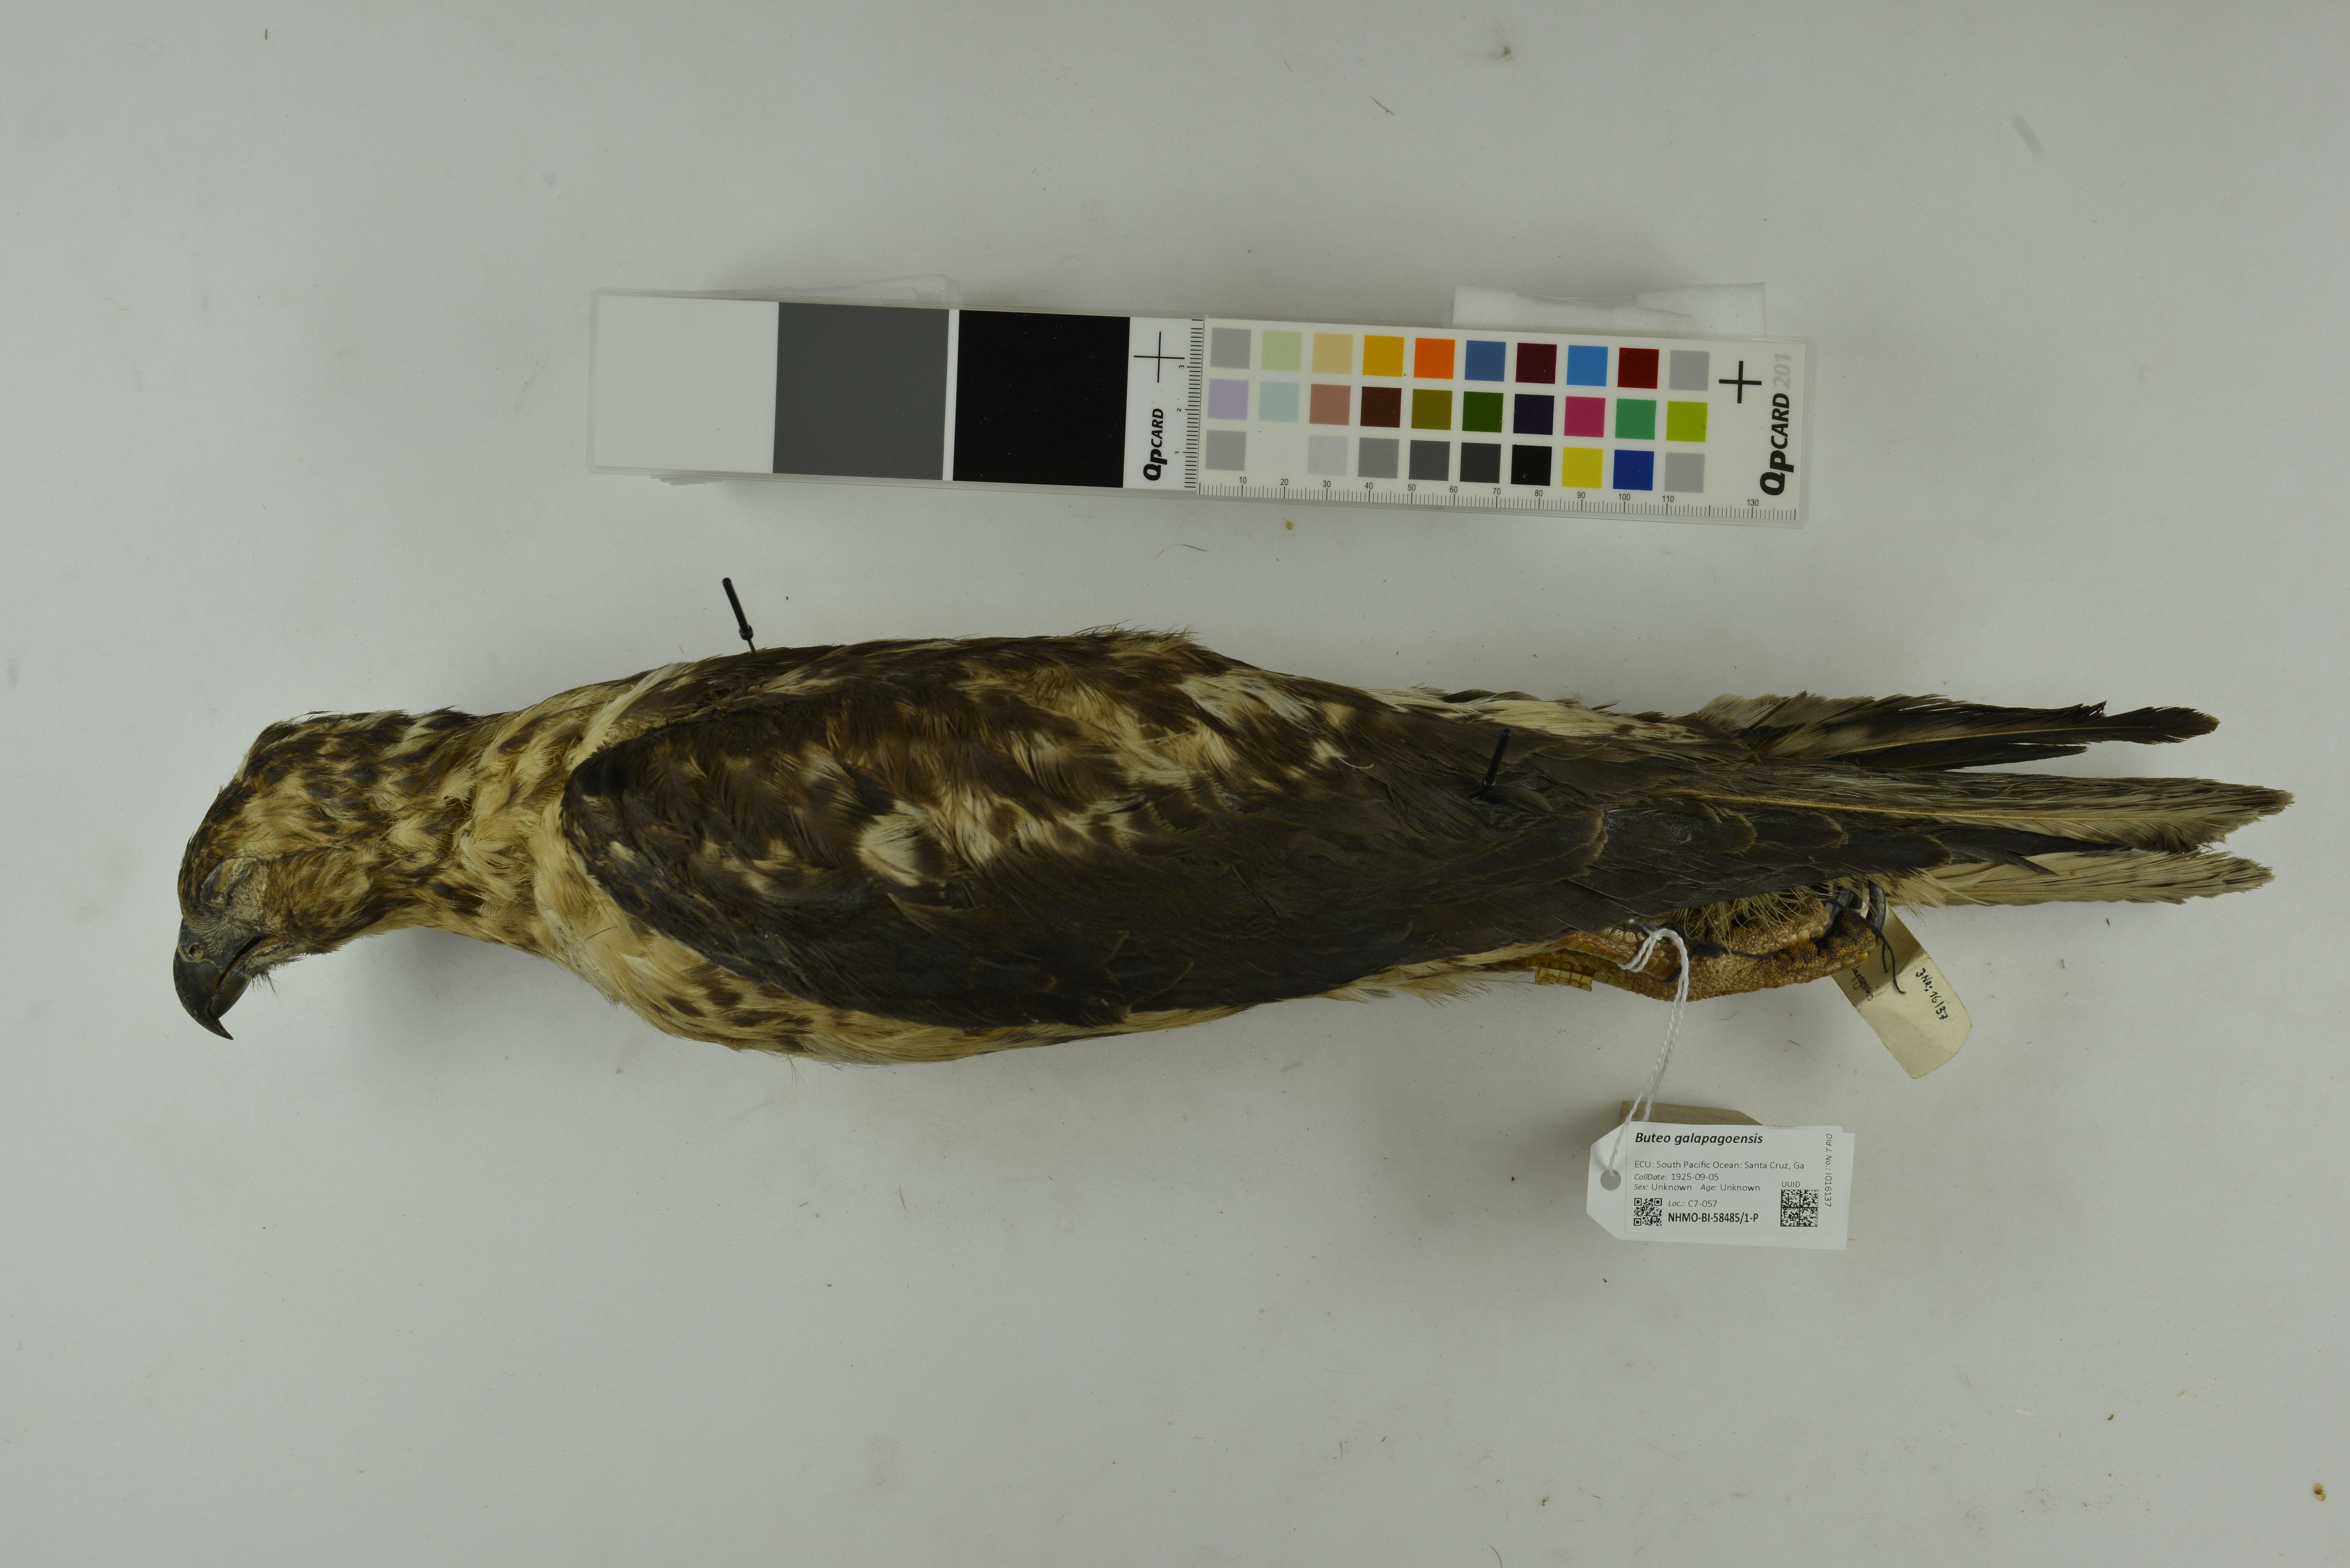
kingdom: Animalia
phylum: Chordata
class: Aves
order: Accipitriformes
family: Accipitridae
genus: Buteo
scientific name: Buteo galapagoensis
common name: Galapagos hawk
